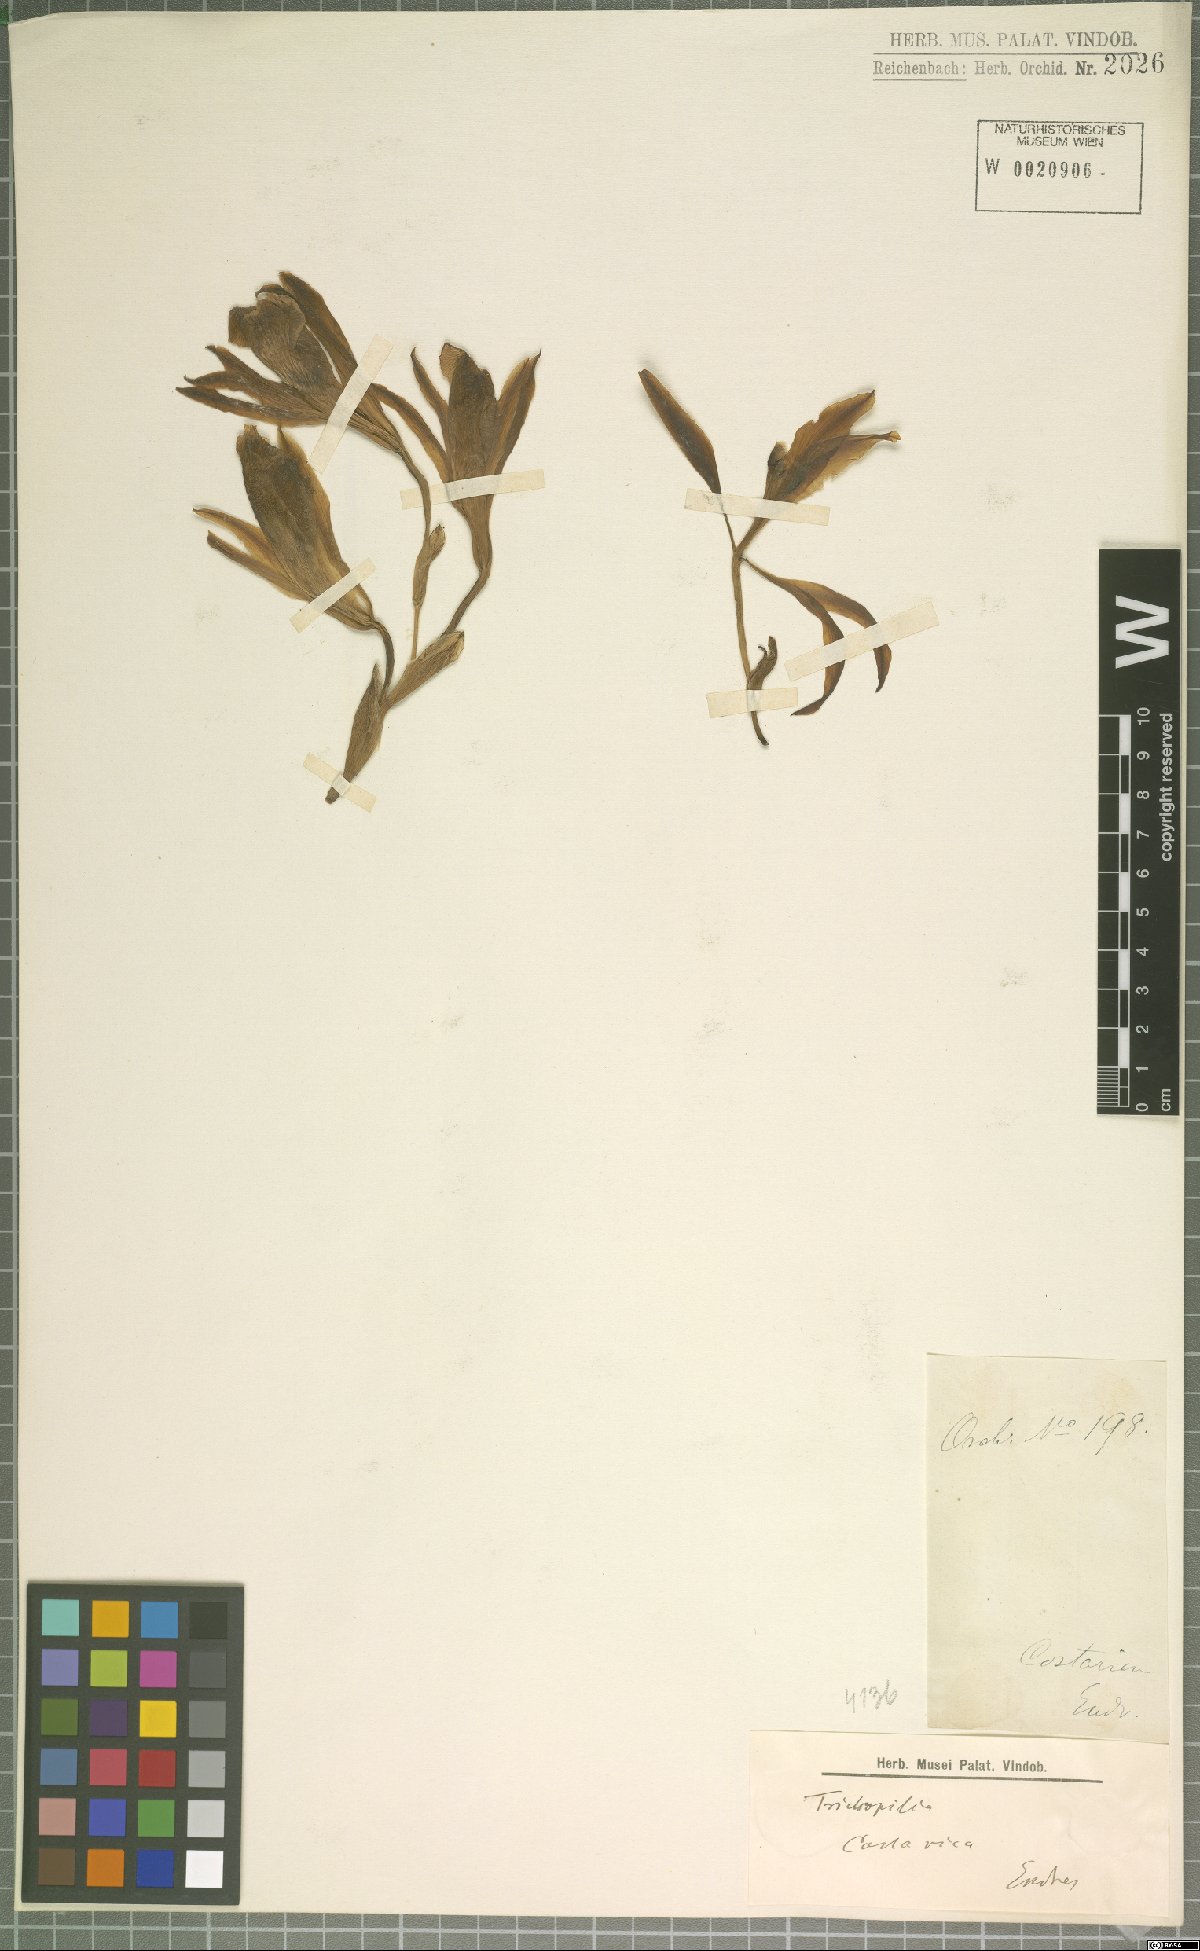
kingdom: Plantae
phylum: Tracheophyta
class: Liliopsida
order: Asparagales
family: Orchidaceae
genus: Trichopilia
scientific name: Trichopilia
